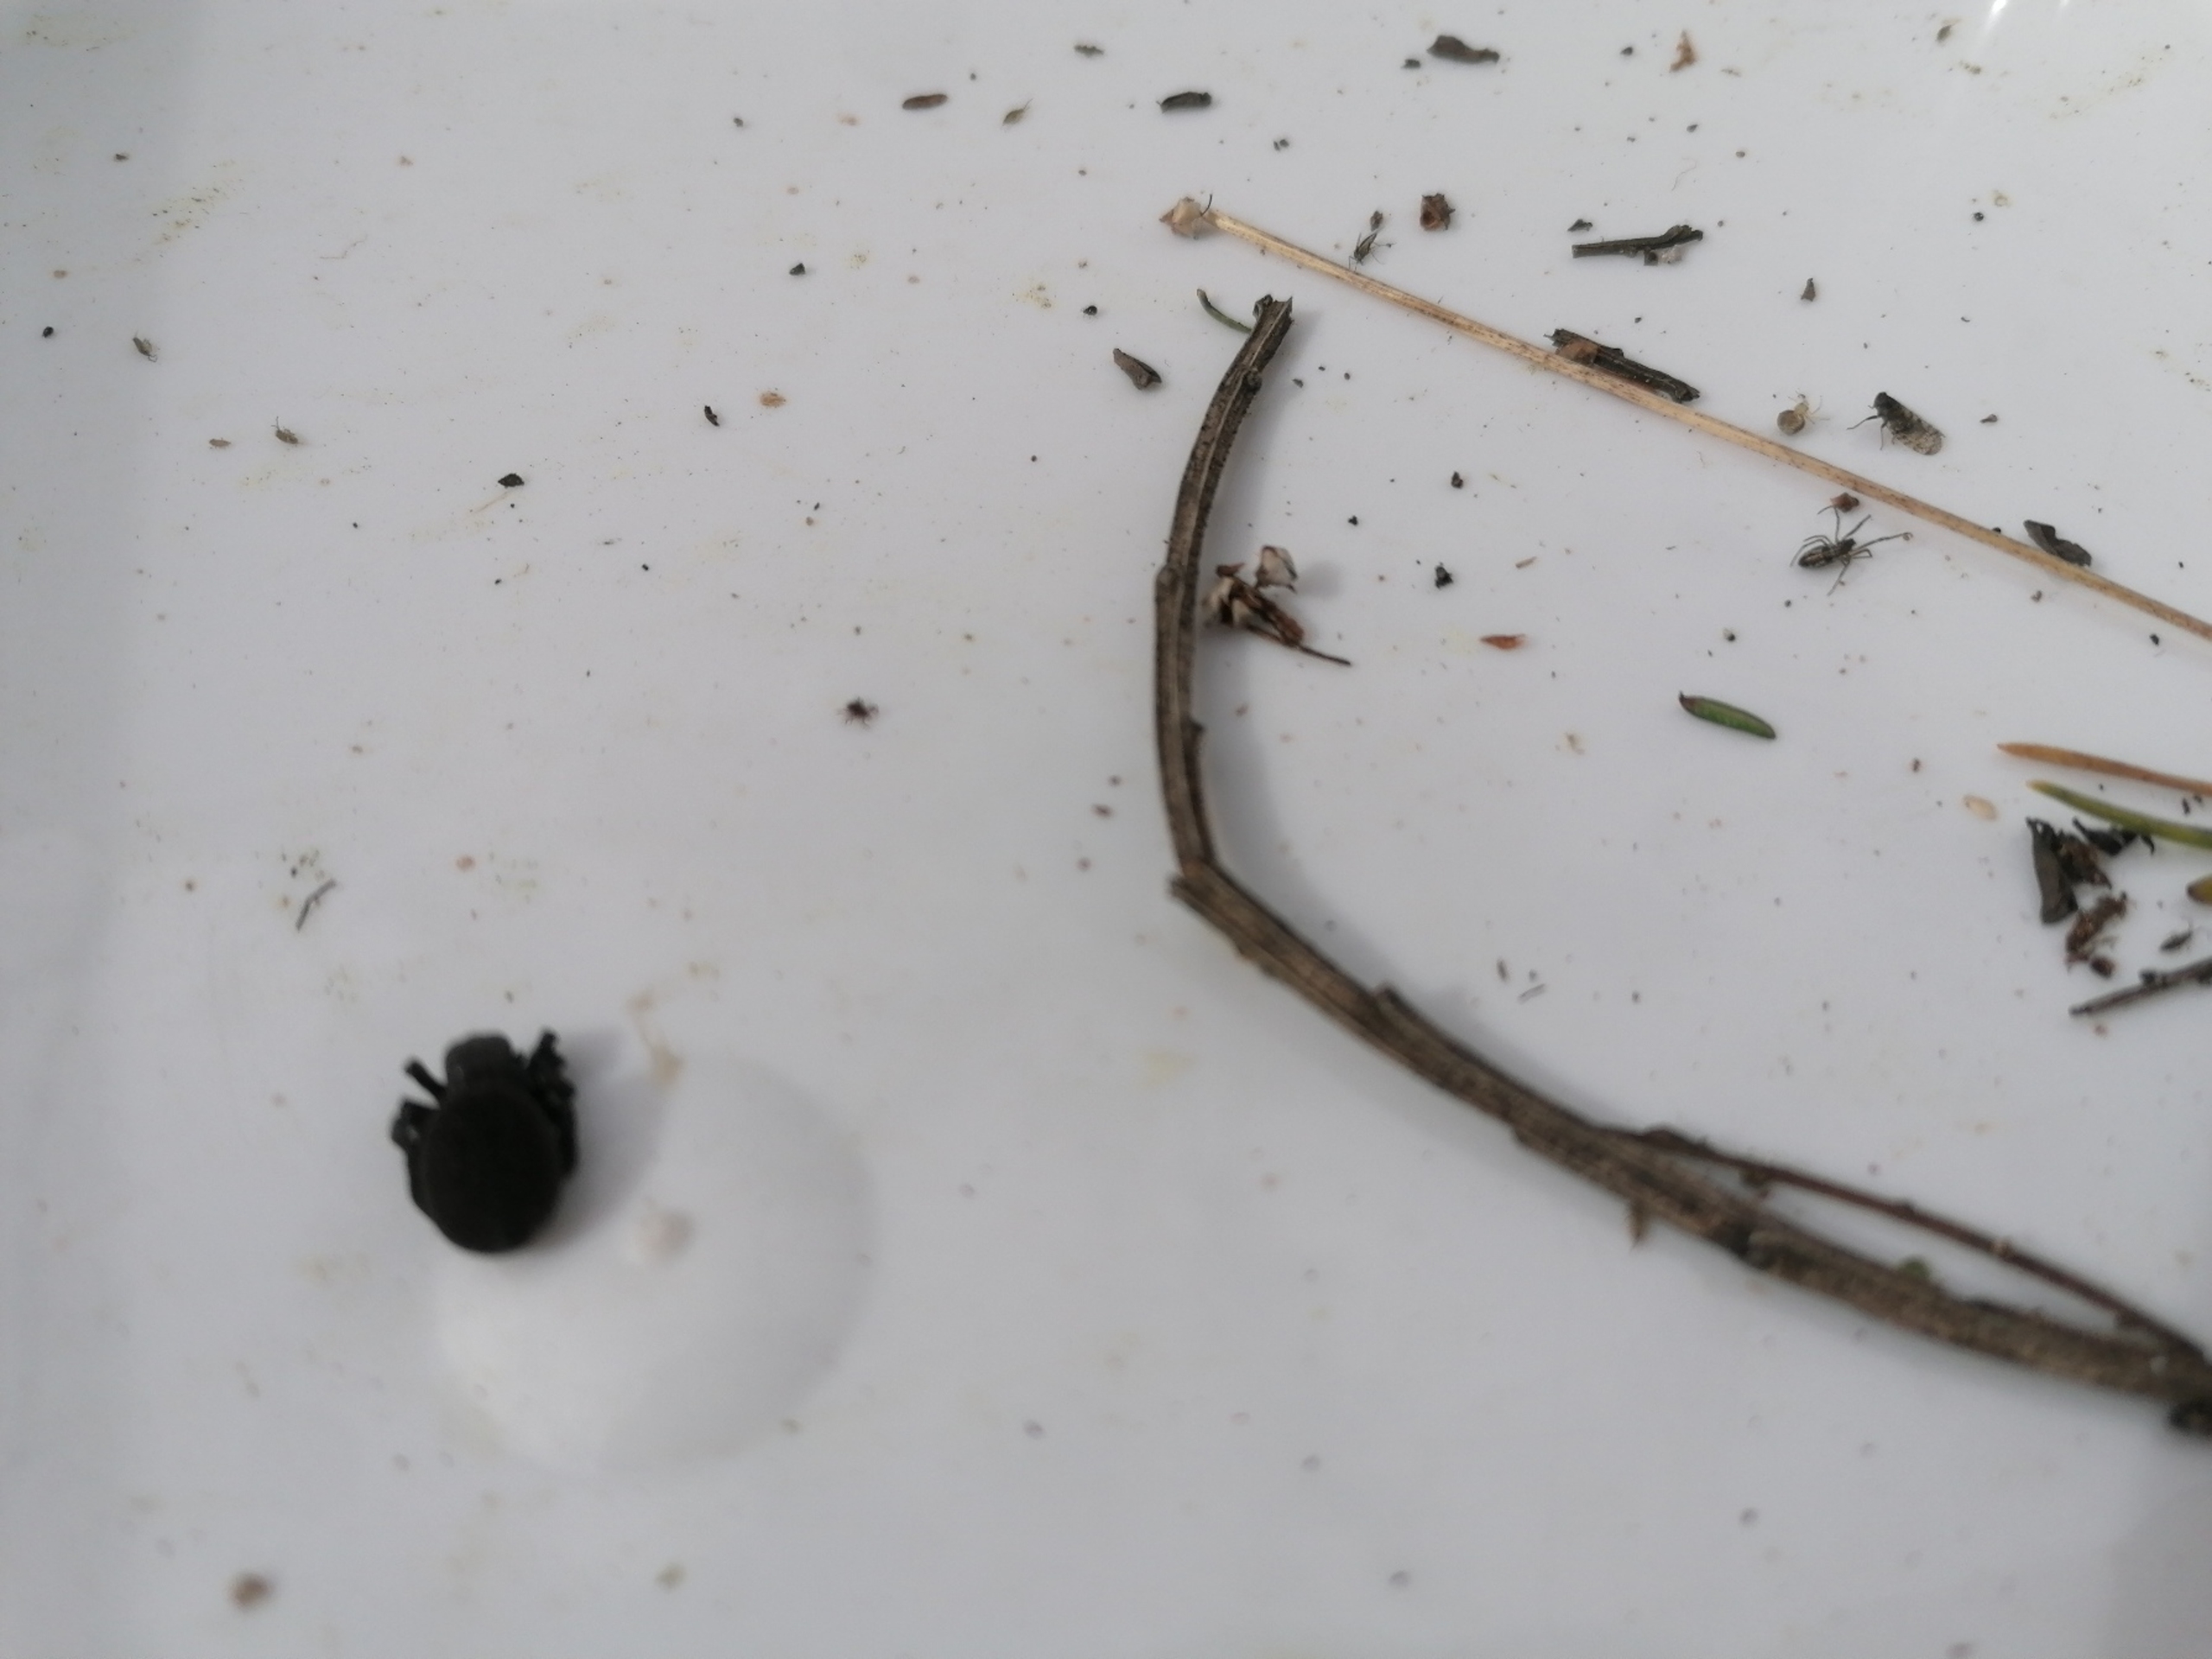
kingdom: Animalia
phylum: Arthropoda
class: Arachnida
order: Araneae
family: Eresidae
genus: Eresus
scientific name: Eresus sandaliatus
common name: Mariehøneedderkop
